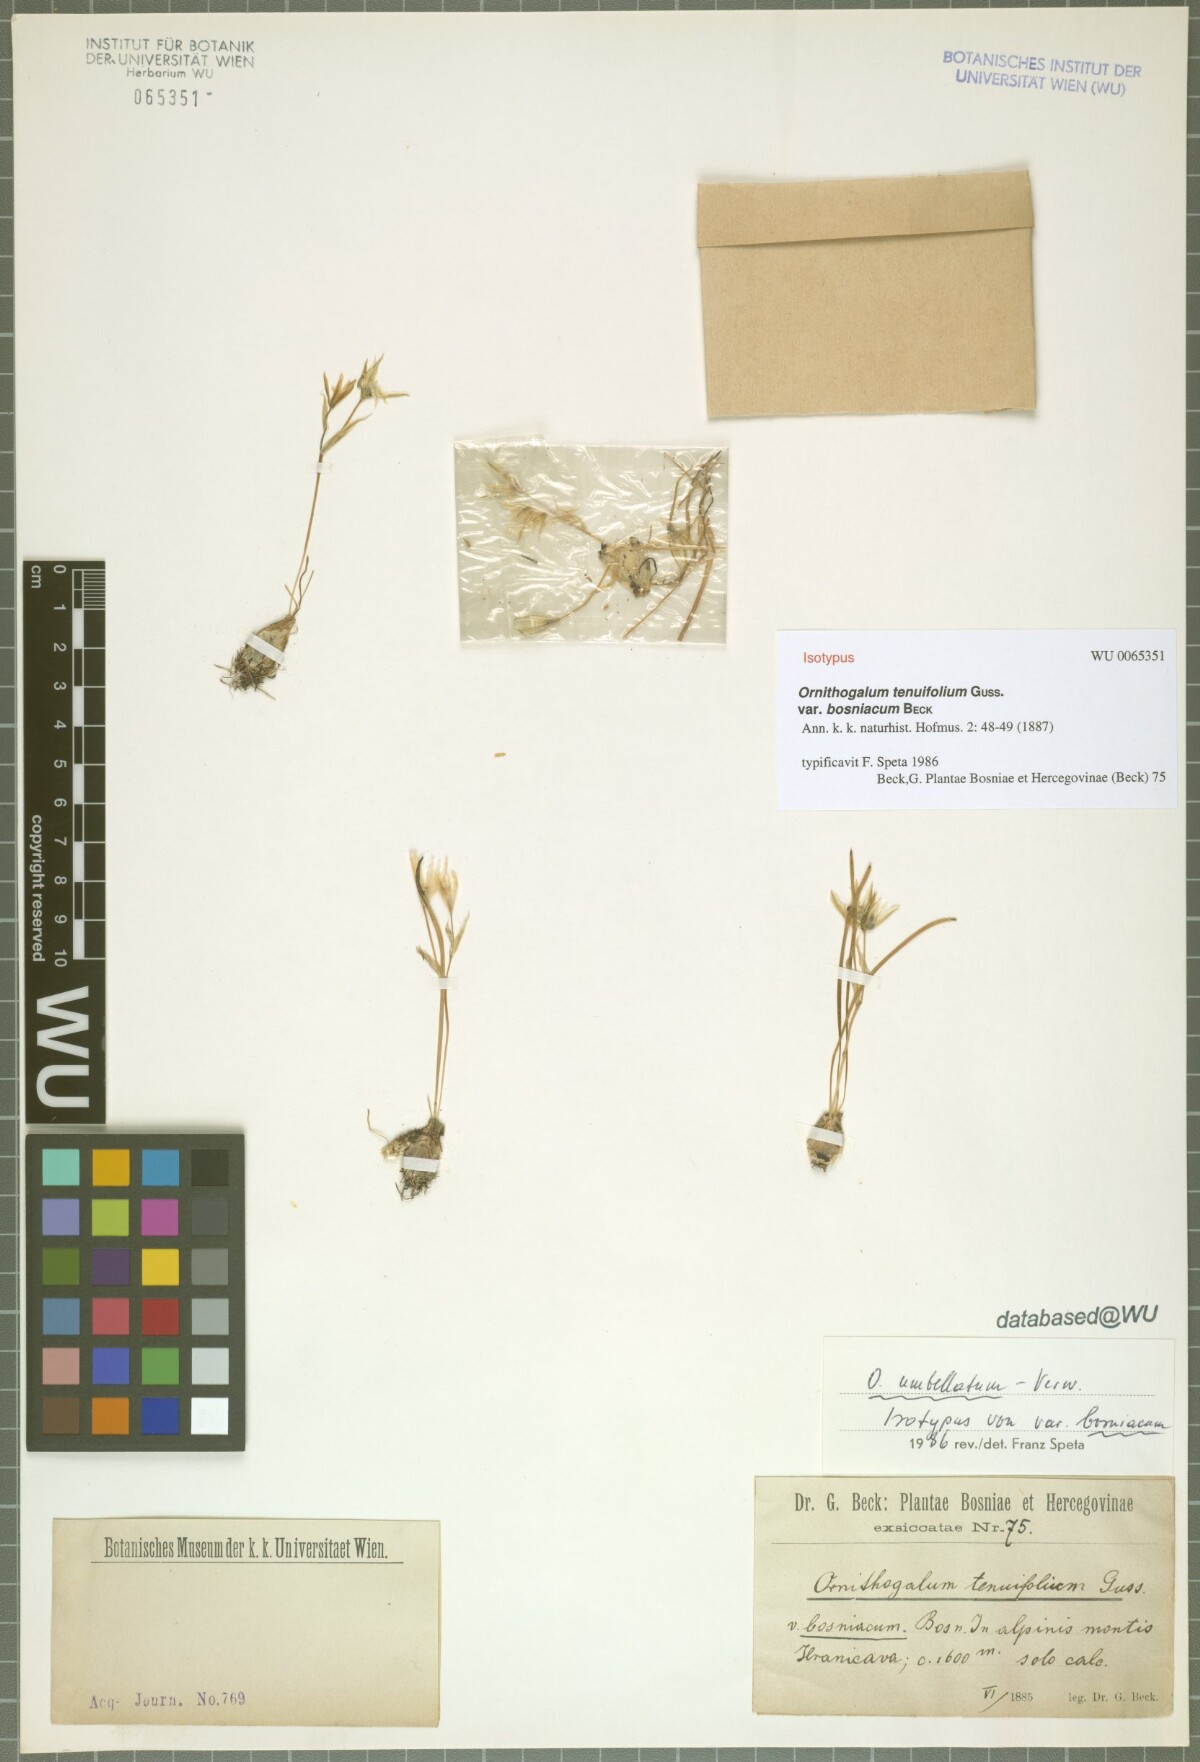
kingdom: Plantae
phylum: Tracheophyta
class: Liliopsida
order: Asparagales
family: Asparagaceae
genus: Ornithogalum
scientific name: Ornithogalum collinum
